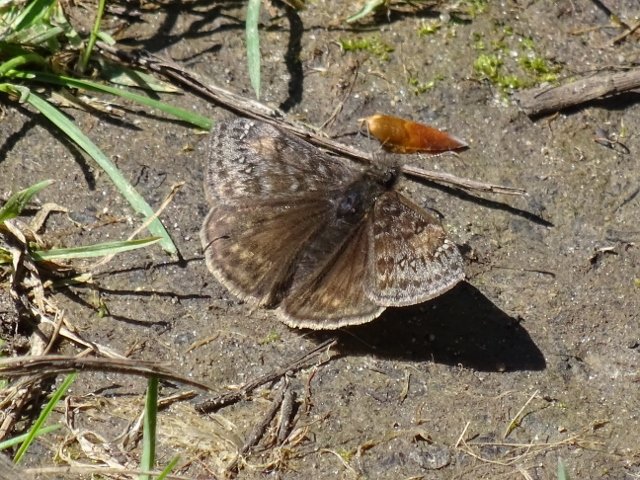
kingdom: Animalia
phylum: Arthropoda
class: Insecta
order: Lepidoptera
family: Hesperiidae
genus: Gesta
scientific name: Gesta
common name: Juvenal's Duskywing
